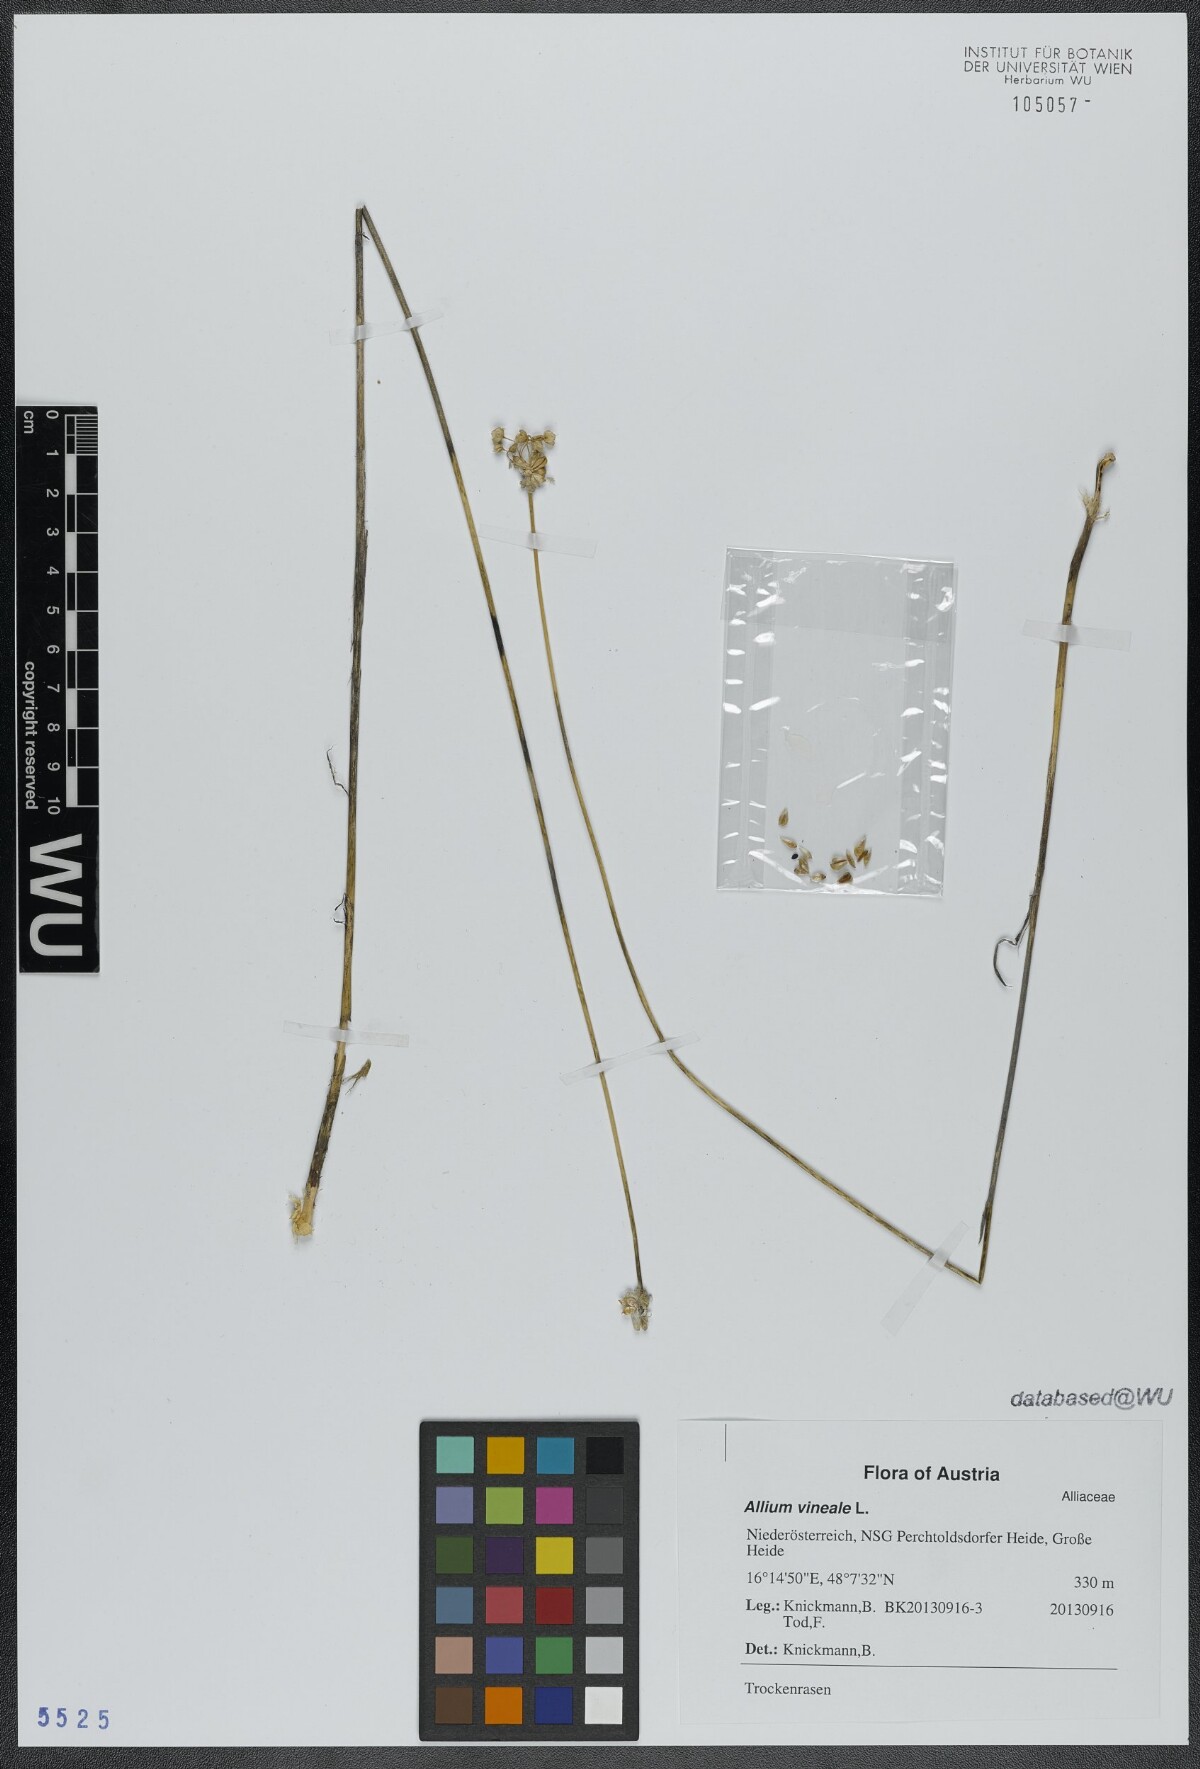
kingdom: Plantae
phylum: Tracheophyta
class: Liliopsida
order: Asparagales
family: Amaryllidaceae
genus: Allium
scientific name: Allium vineale
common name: Crow garlic
